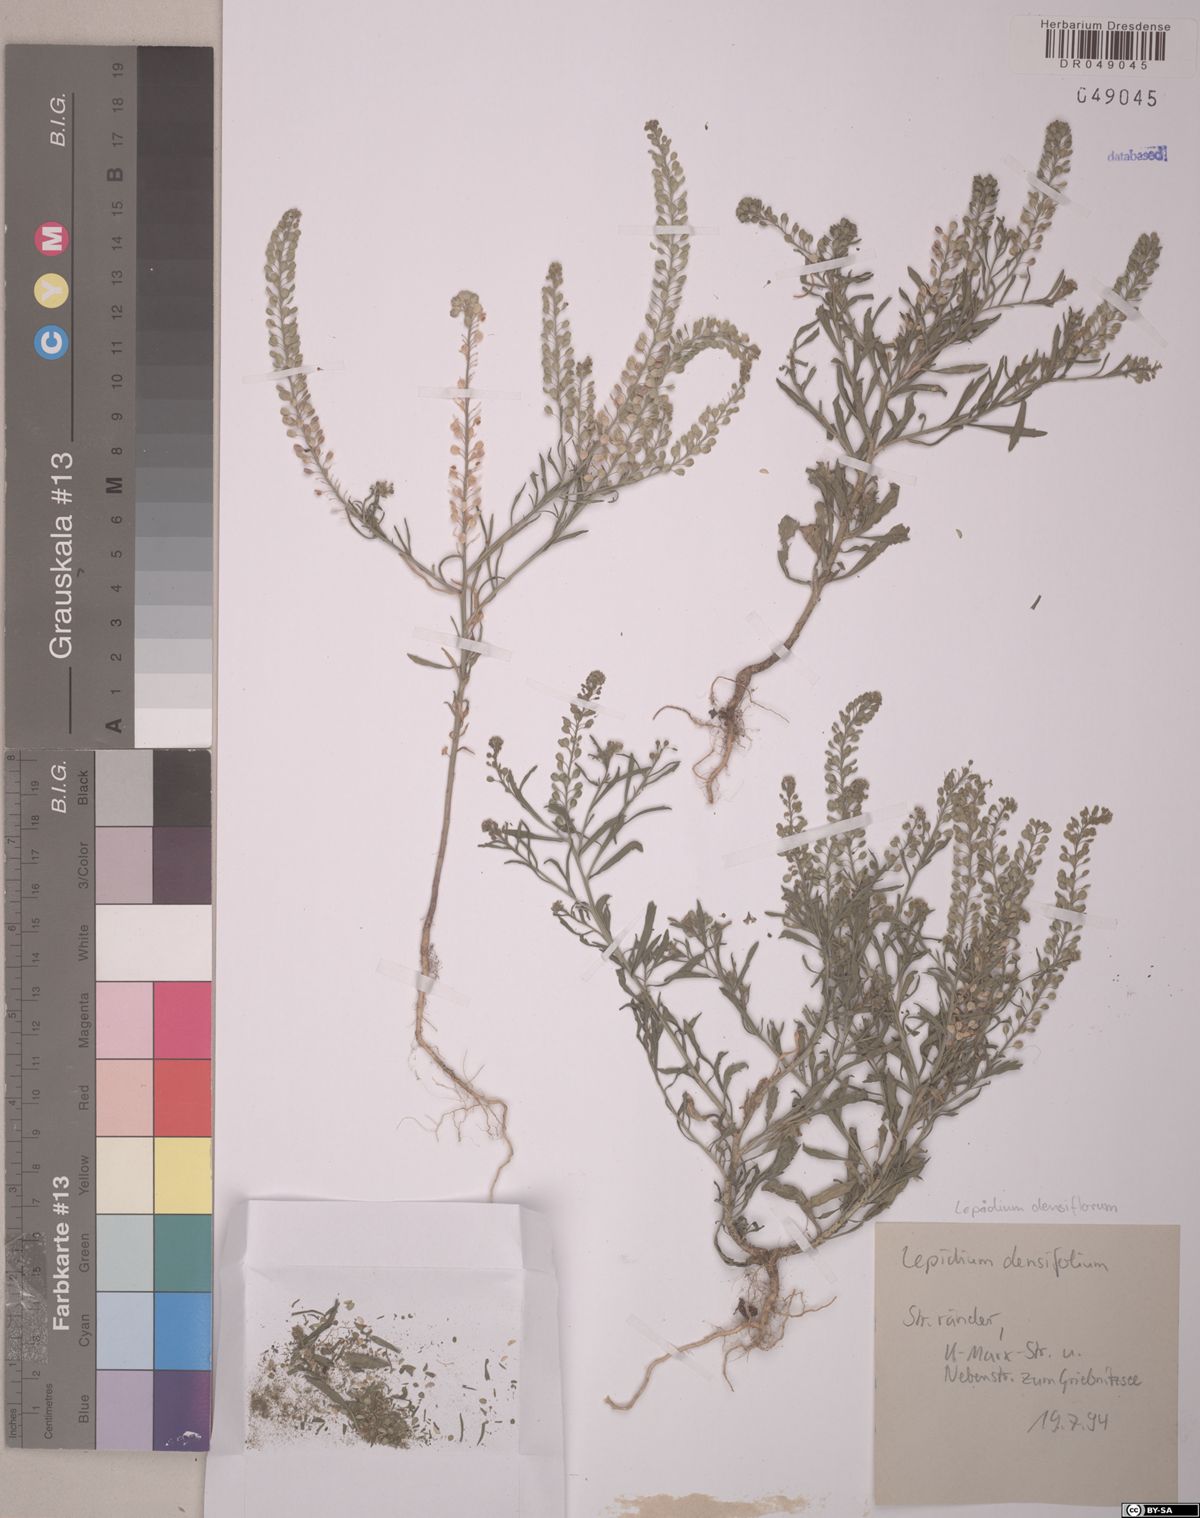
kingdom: Plantae
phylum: Tracheophyta
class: Magnoliopsida
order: Brassicales
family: Brassicaceae
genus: Lepidium
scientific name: Lepidium densiflorum
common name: Miner's pepperwort
